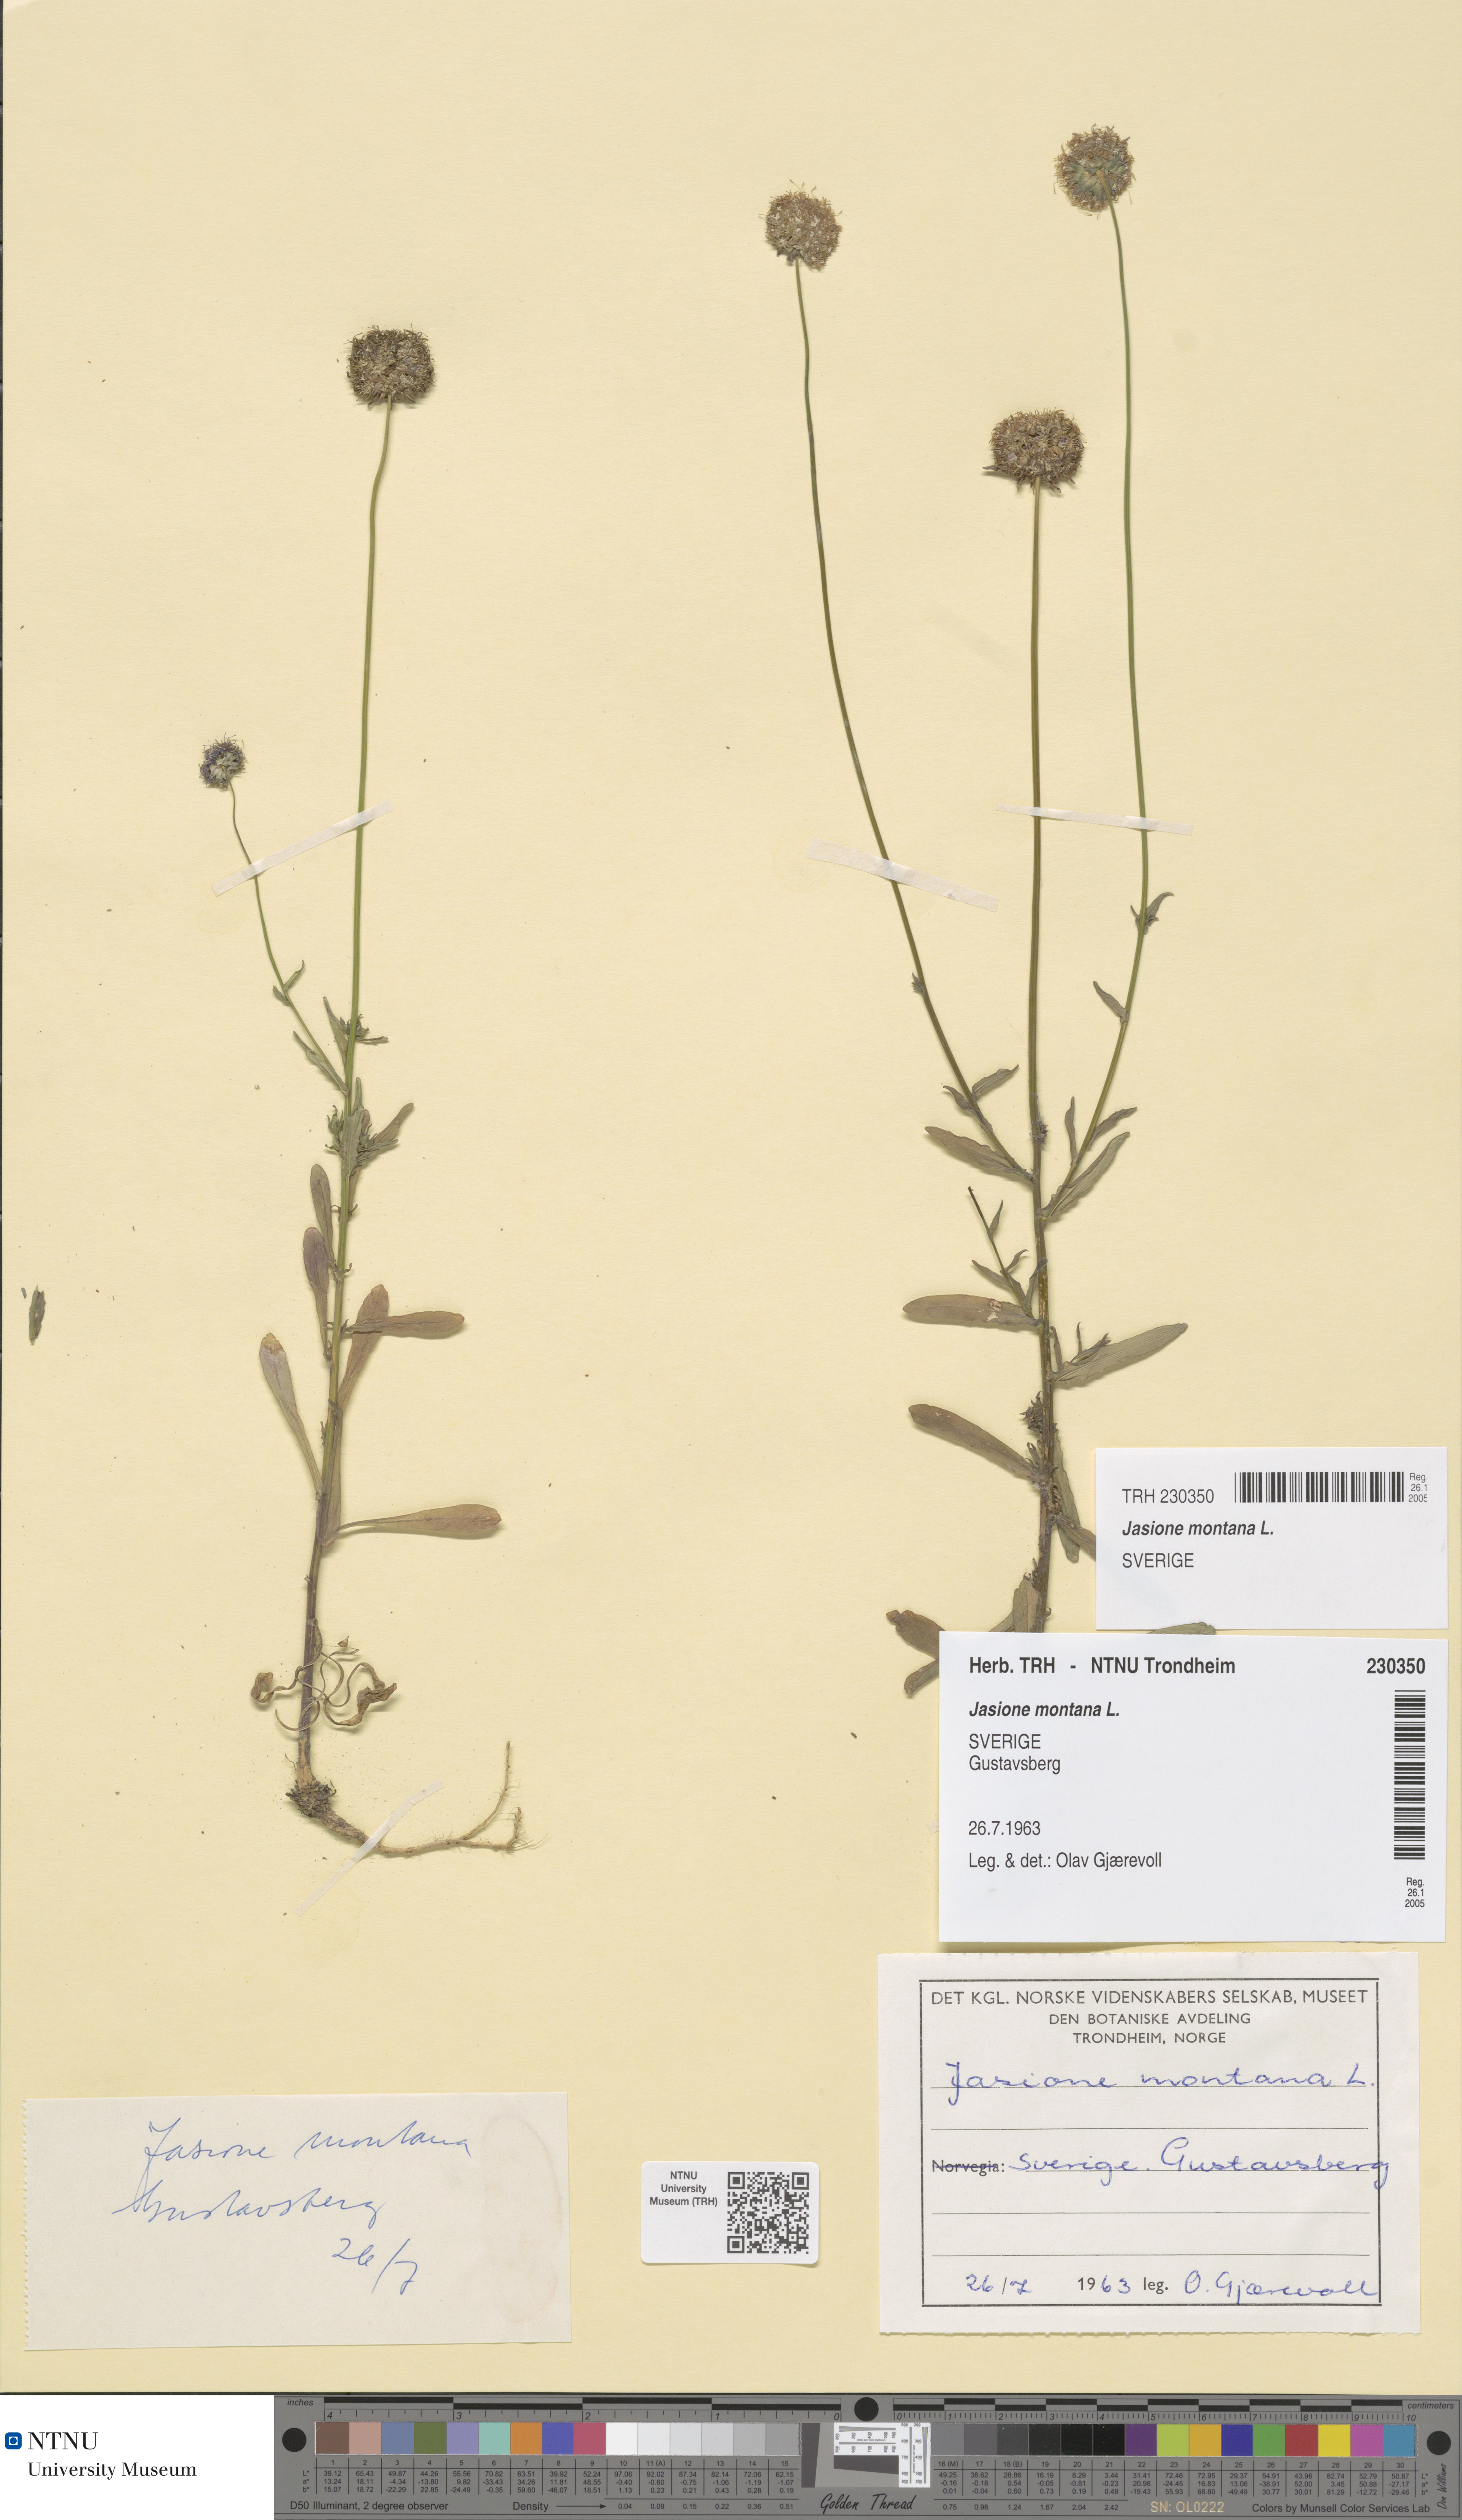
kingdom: Plantae
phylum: Tracheophyta
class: Magnoliopsida
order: Asterales
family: Campanulaceae
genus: Jasione
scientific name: Jasione montana
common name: Sheep's-bit
